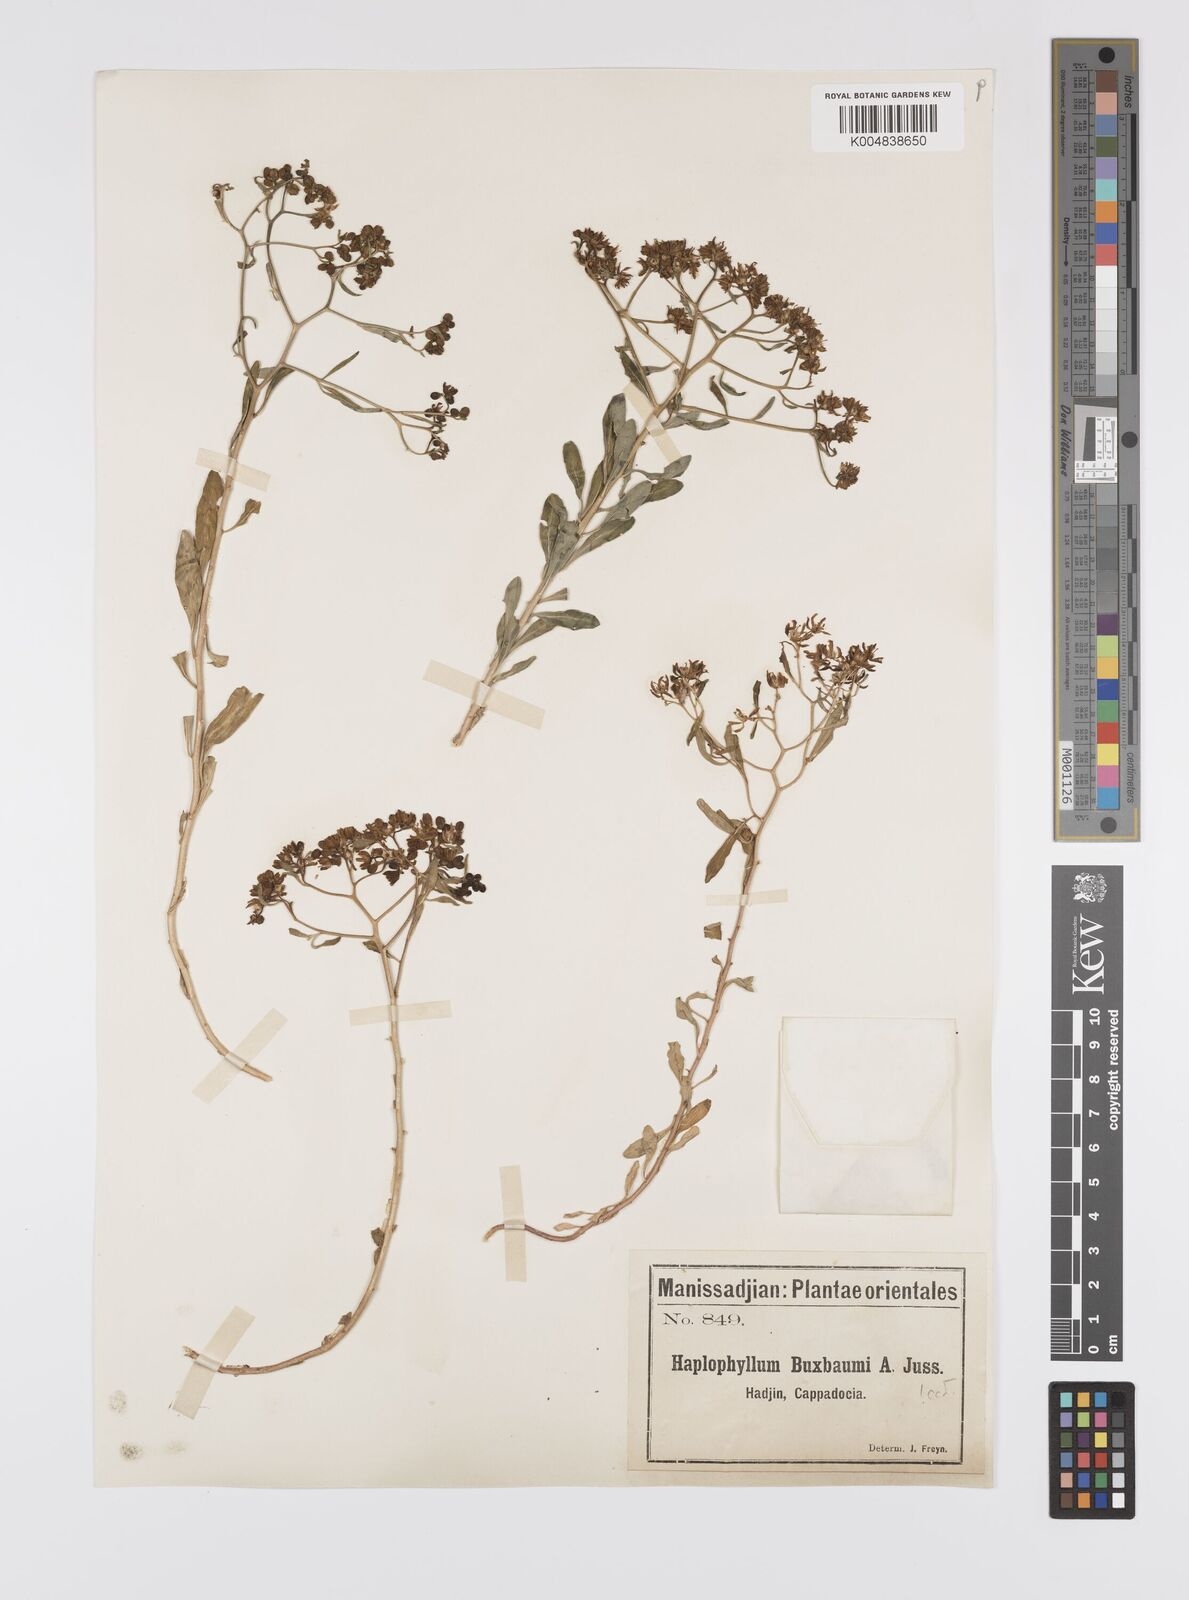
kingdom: Plantae
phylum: Tracheophyta
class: Magnoliopsida
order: Sapindales
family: Rutaceae
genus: Haplophyllum
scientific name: Haplophyllum
